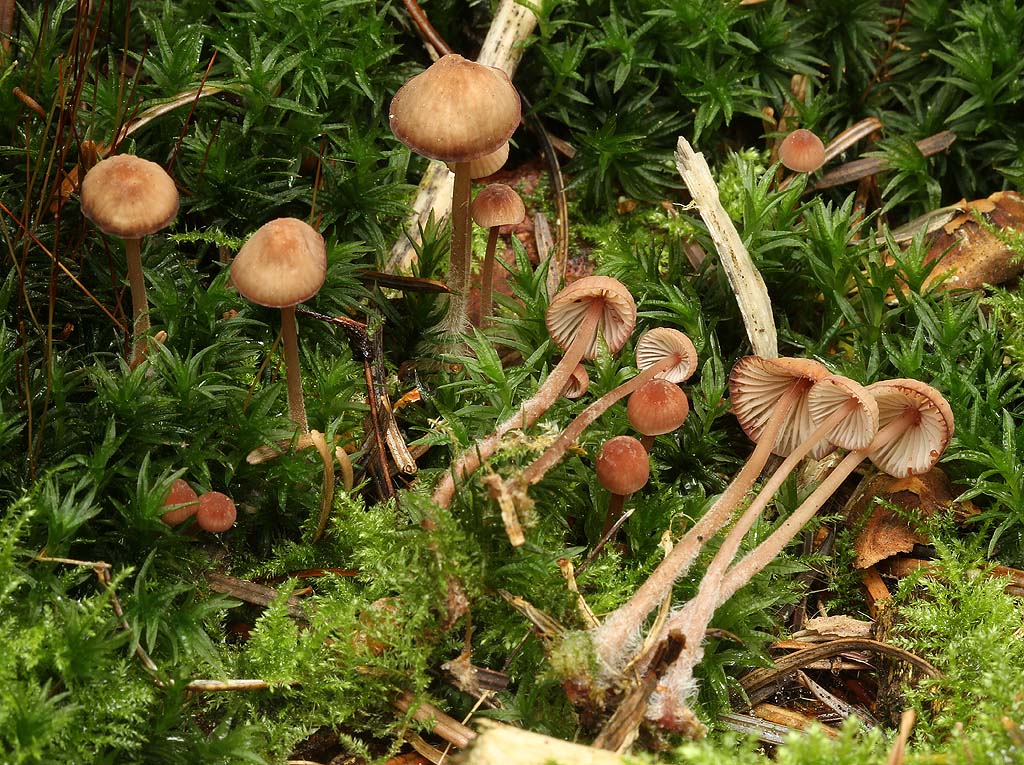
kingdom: Fungi
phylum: Basidiomycota
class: Agaricomycetes
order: Agaricales
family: Mycenaceae
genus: Mycena
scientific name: Mycena sanguinolenta
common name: rødmælket huesvamp
